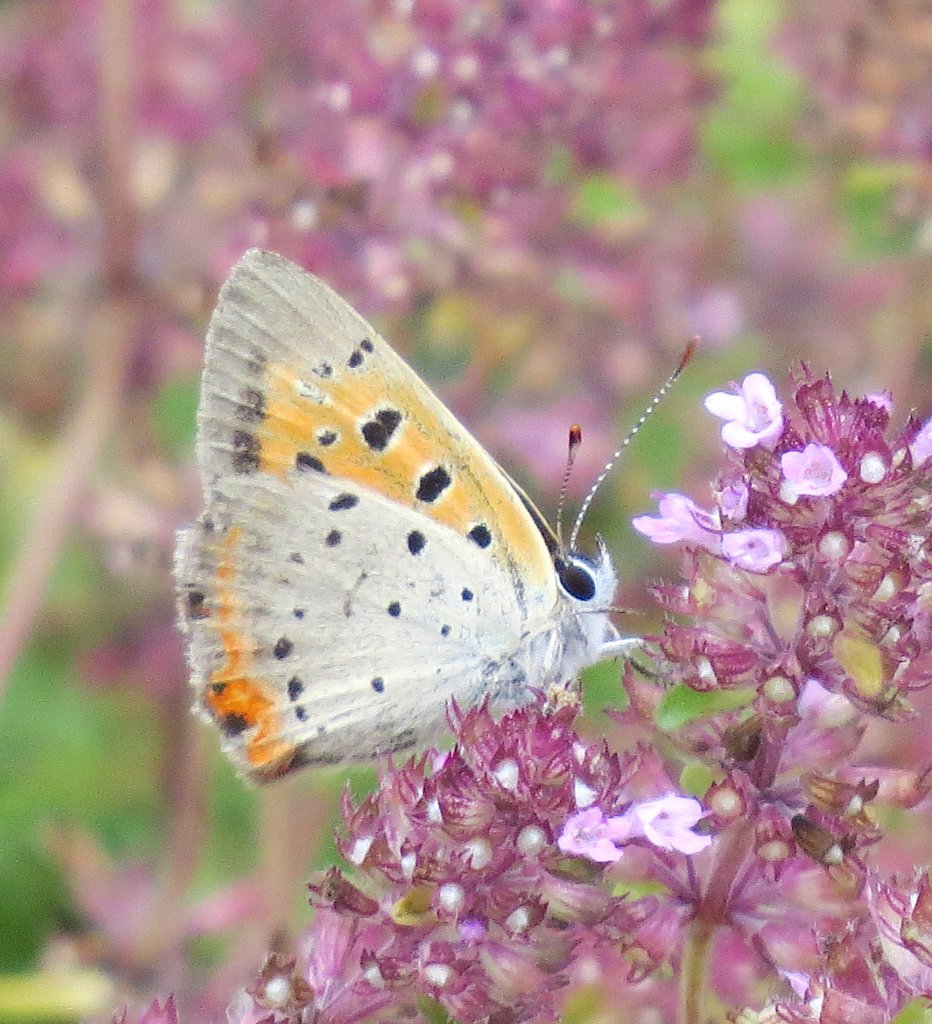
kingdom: Animalia
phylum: Arthropoda
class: Insecta
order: Lepidoptera
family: Lycaenidae
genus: Lycaena
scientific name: Lycaena phlaeas
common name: American Copper
